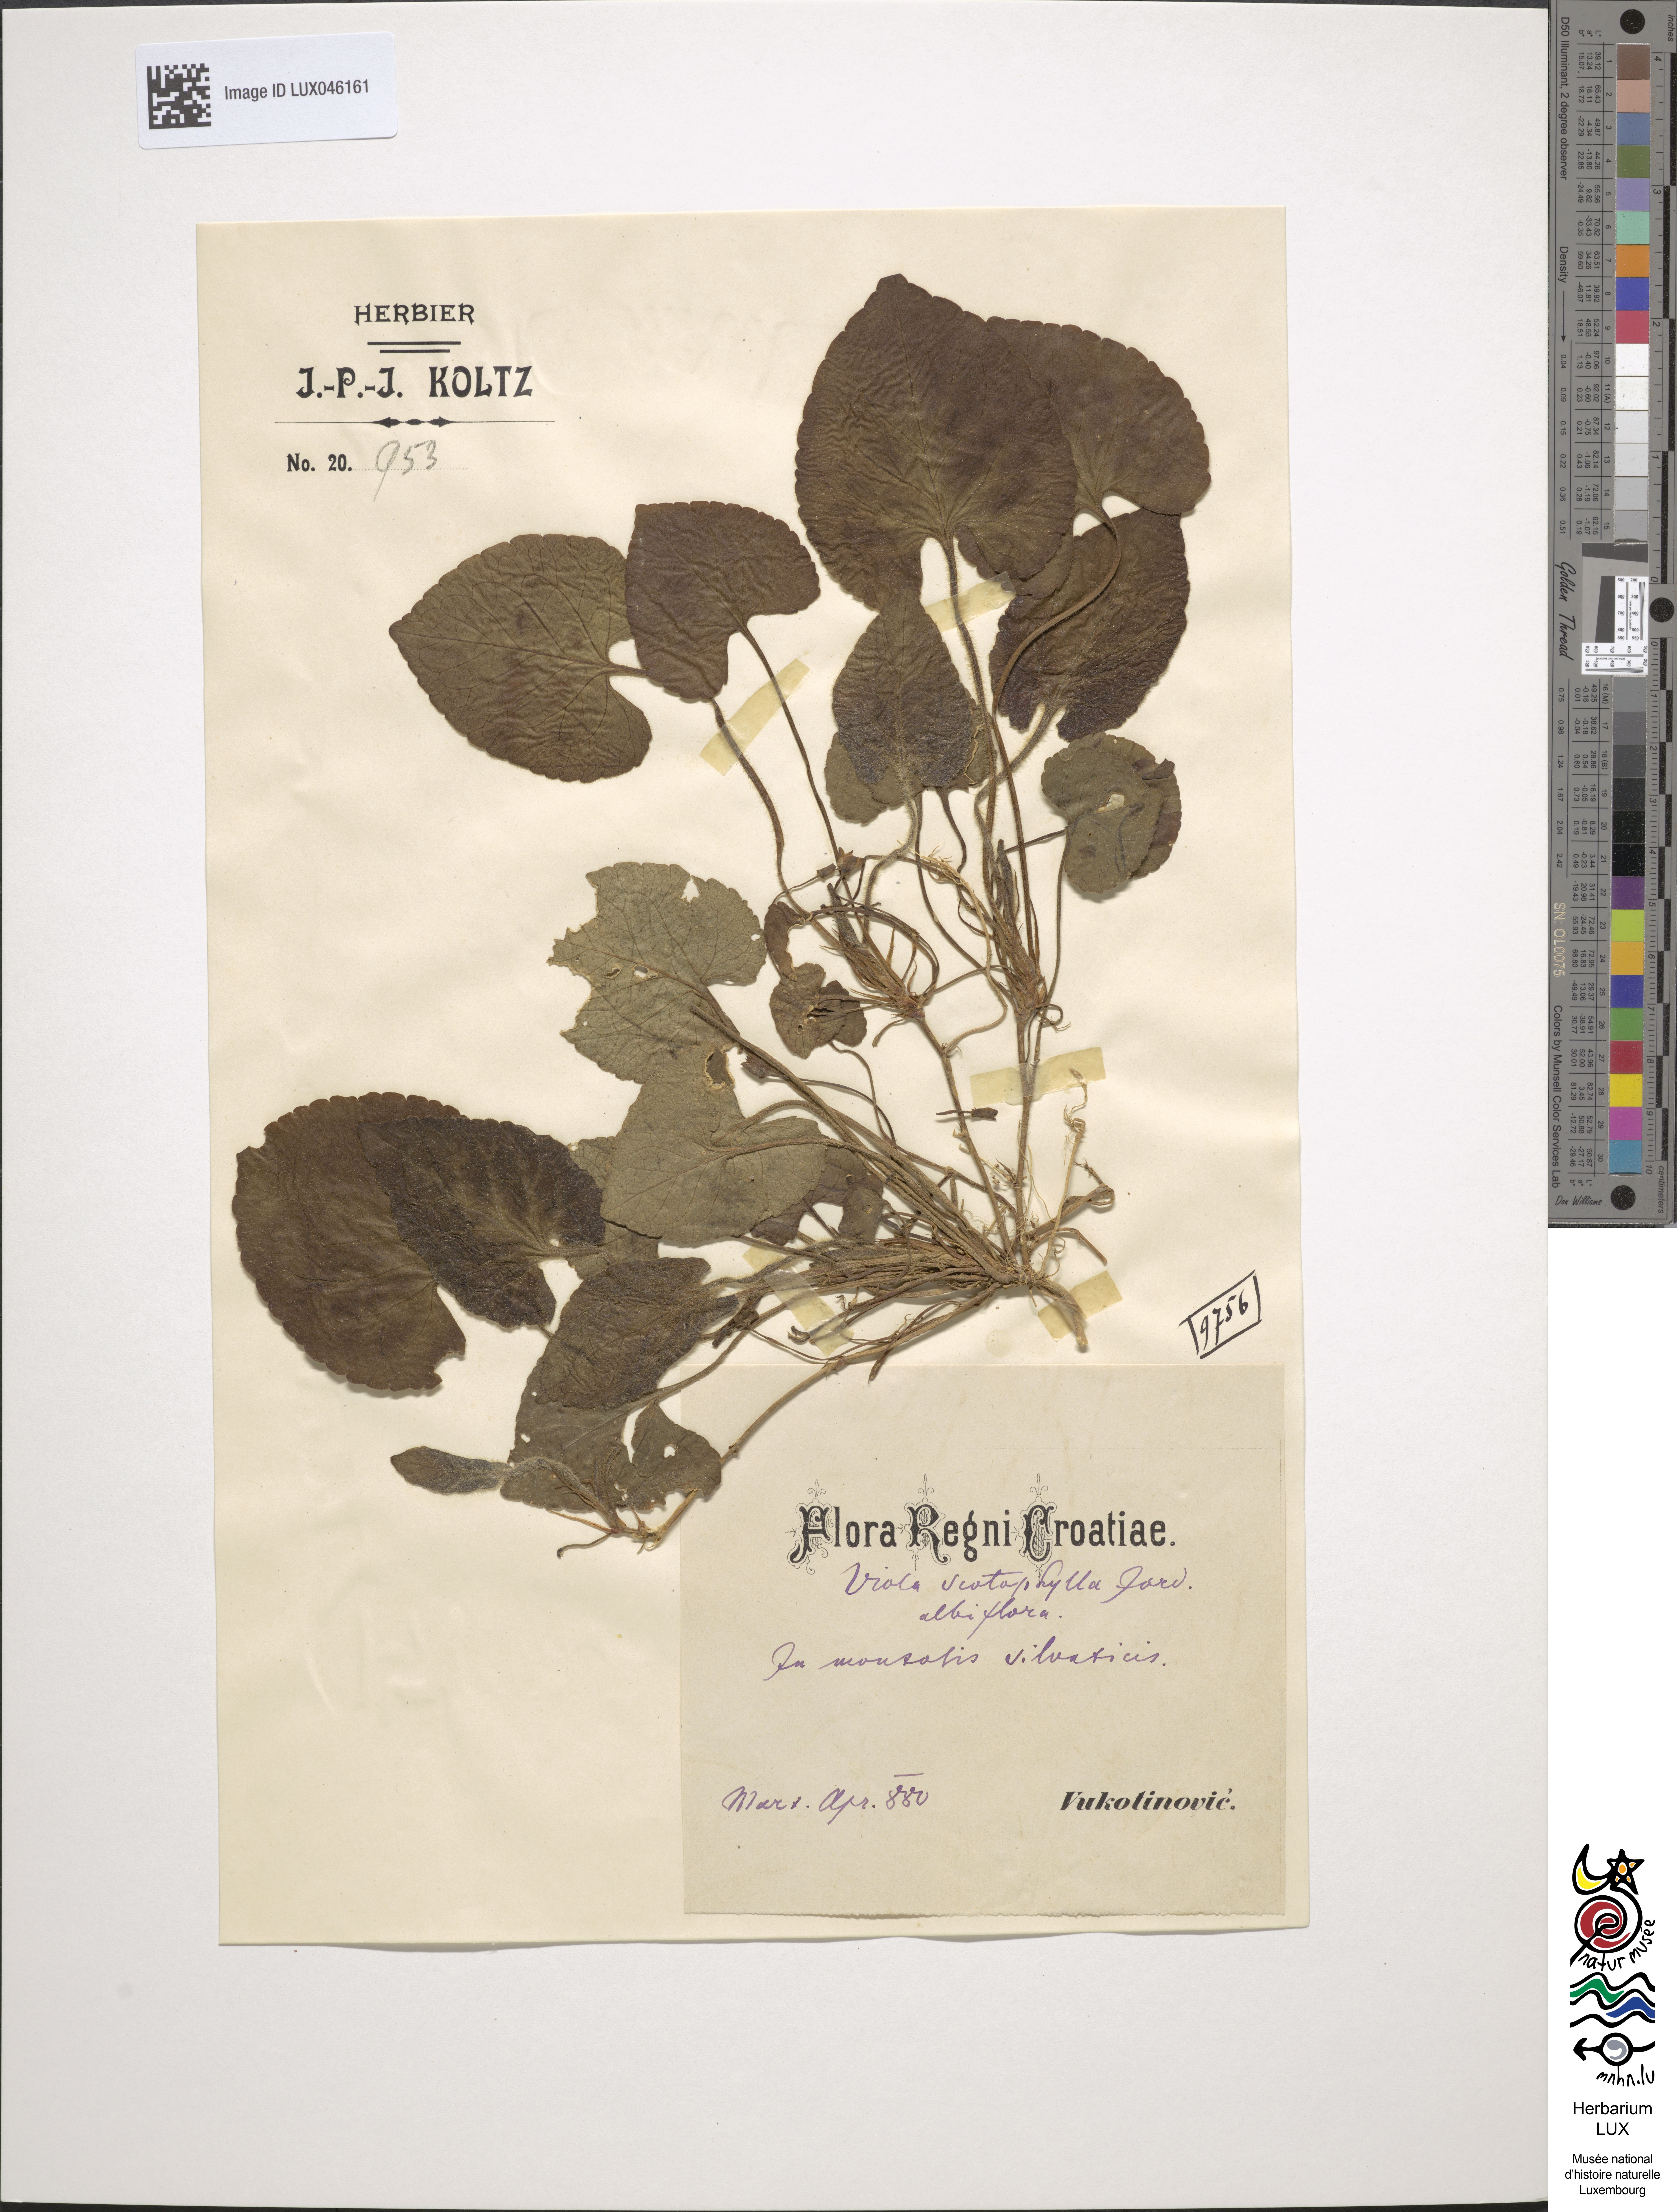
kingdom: Plantae
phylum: Tracheophyta
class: Magnoliopsida
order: Malpighiales
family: Violaceae
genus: Viola
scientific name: Viola alba
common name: White violet
